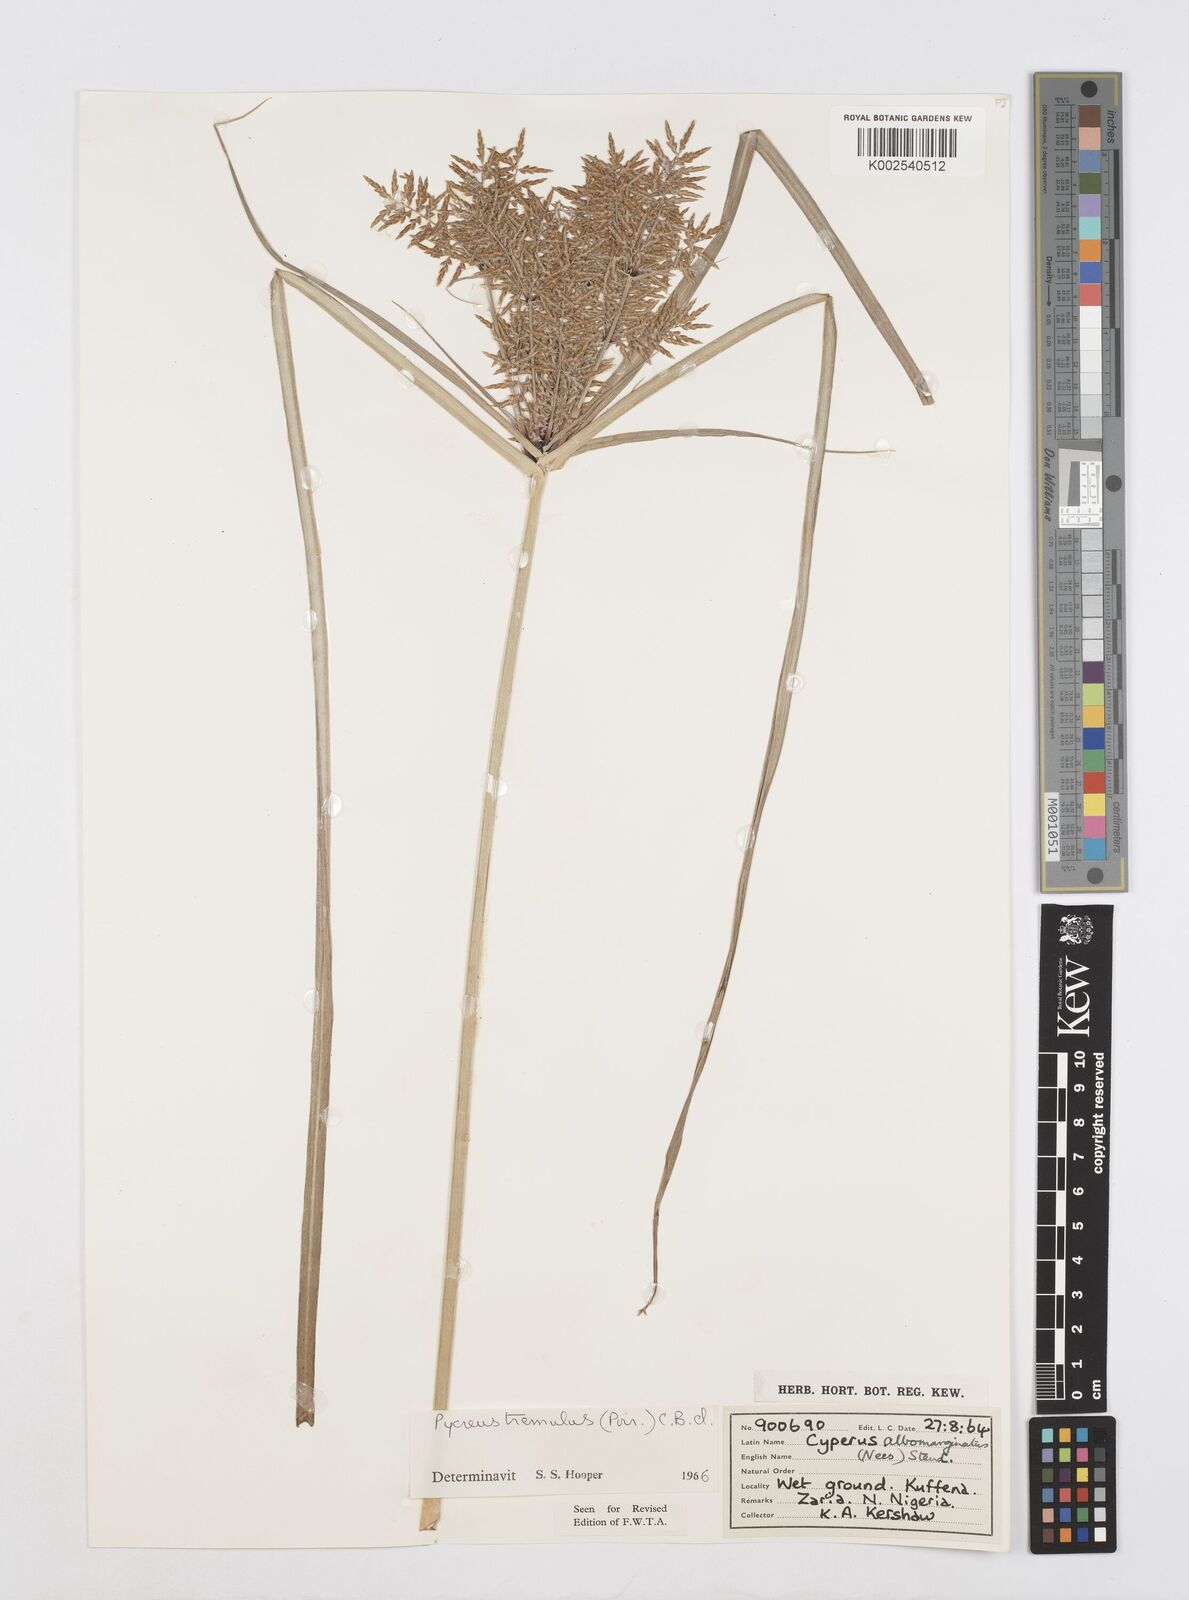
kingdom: Plantae
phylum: Tracheophyta
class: Liliopsida
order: Poales
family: Cyperaceae
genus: Cyperus
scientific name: Cyperus macrostachyos
